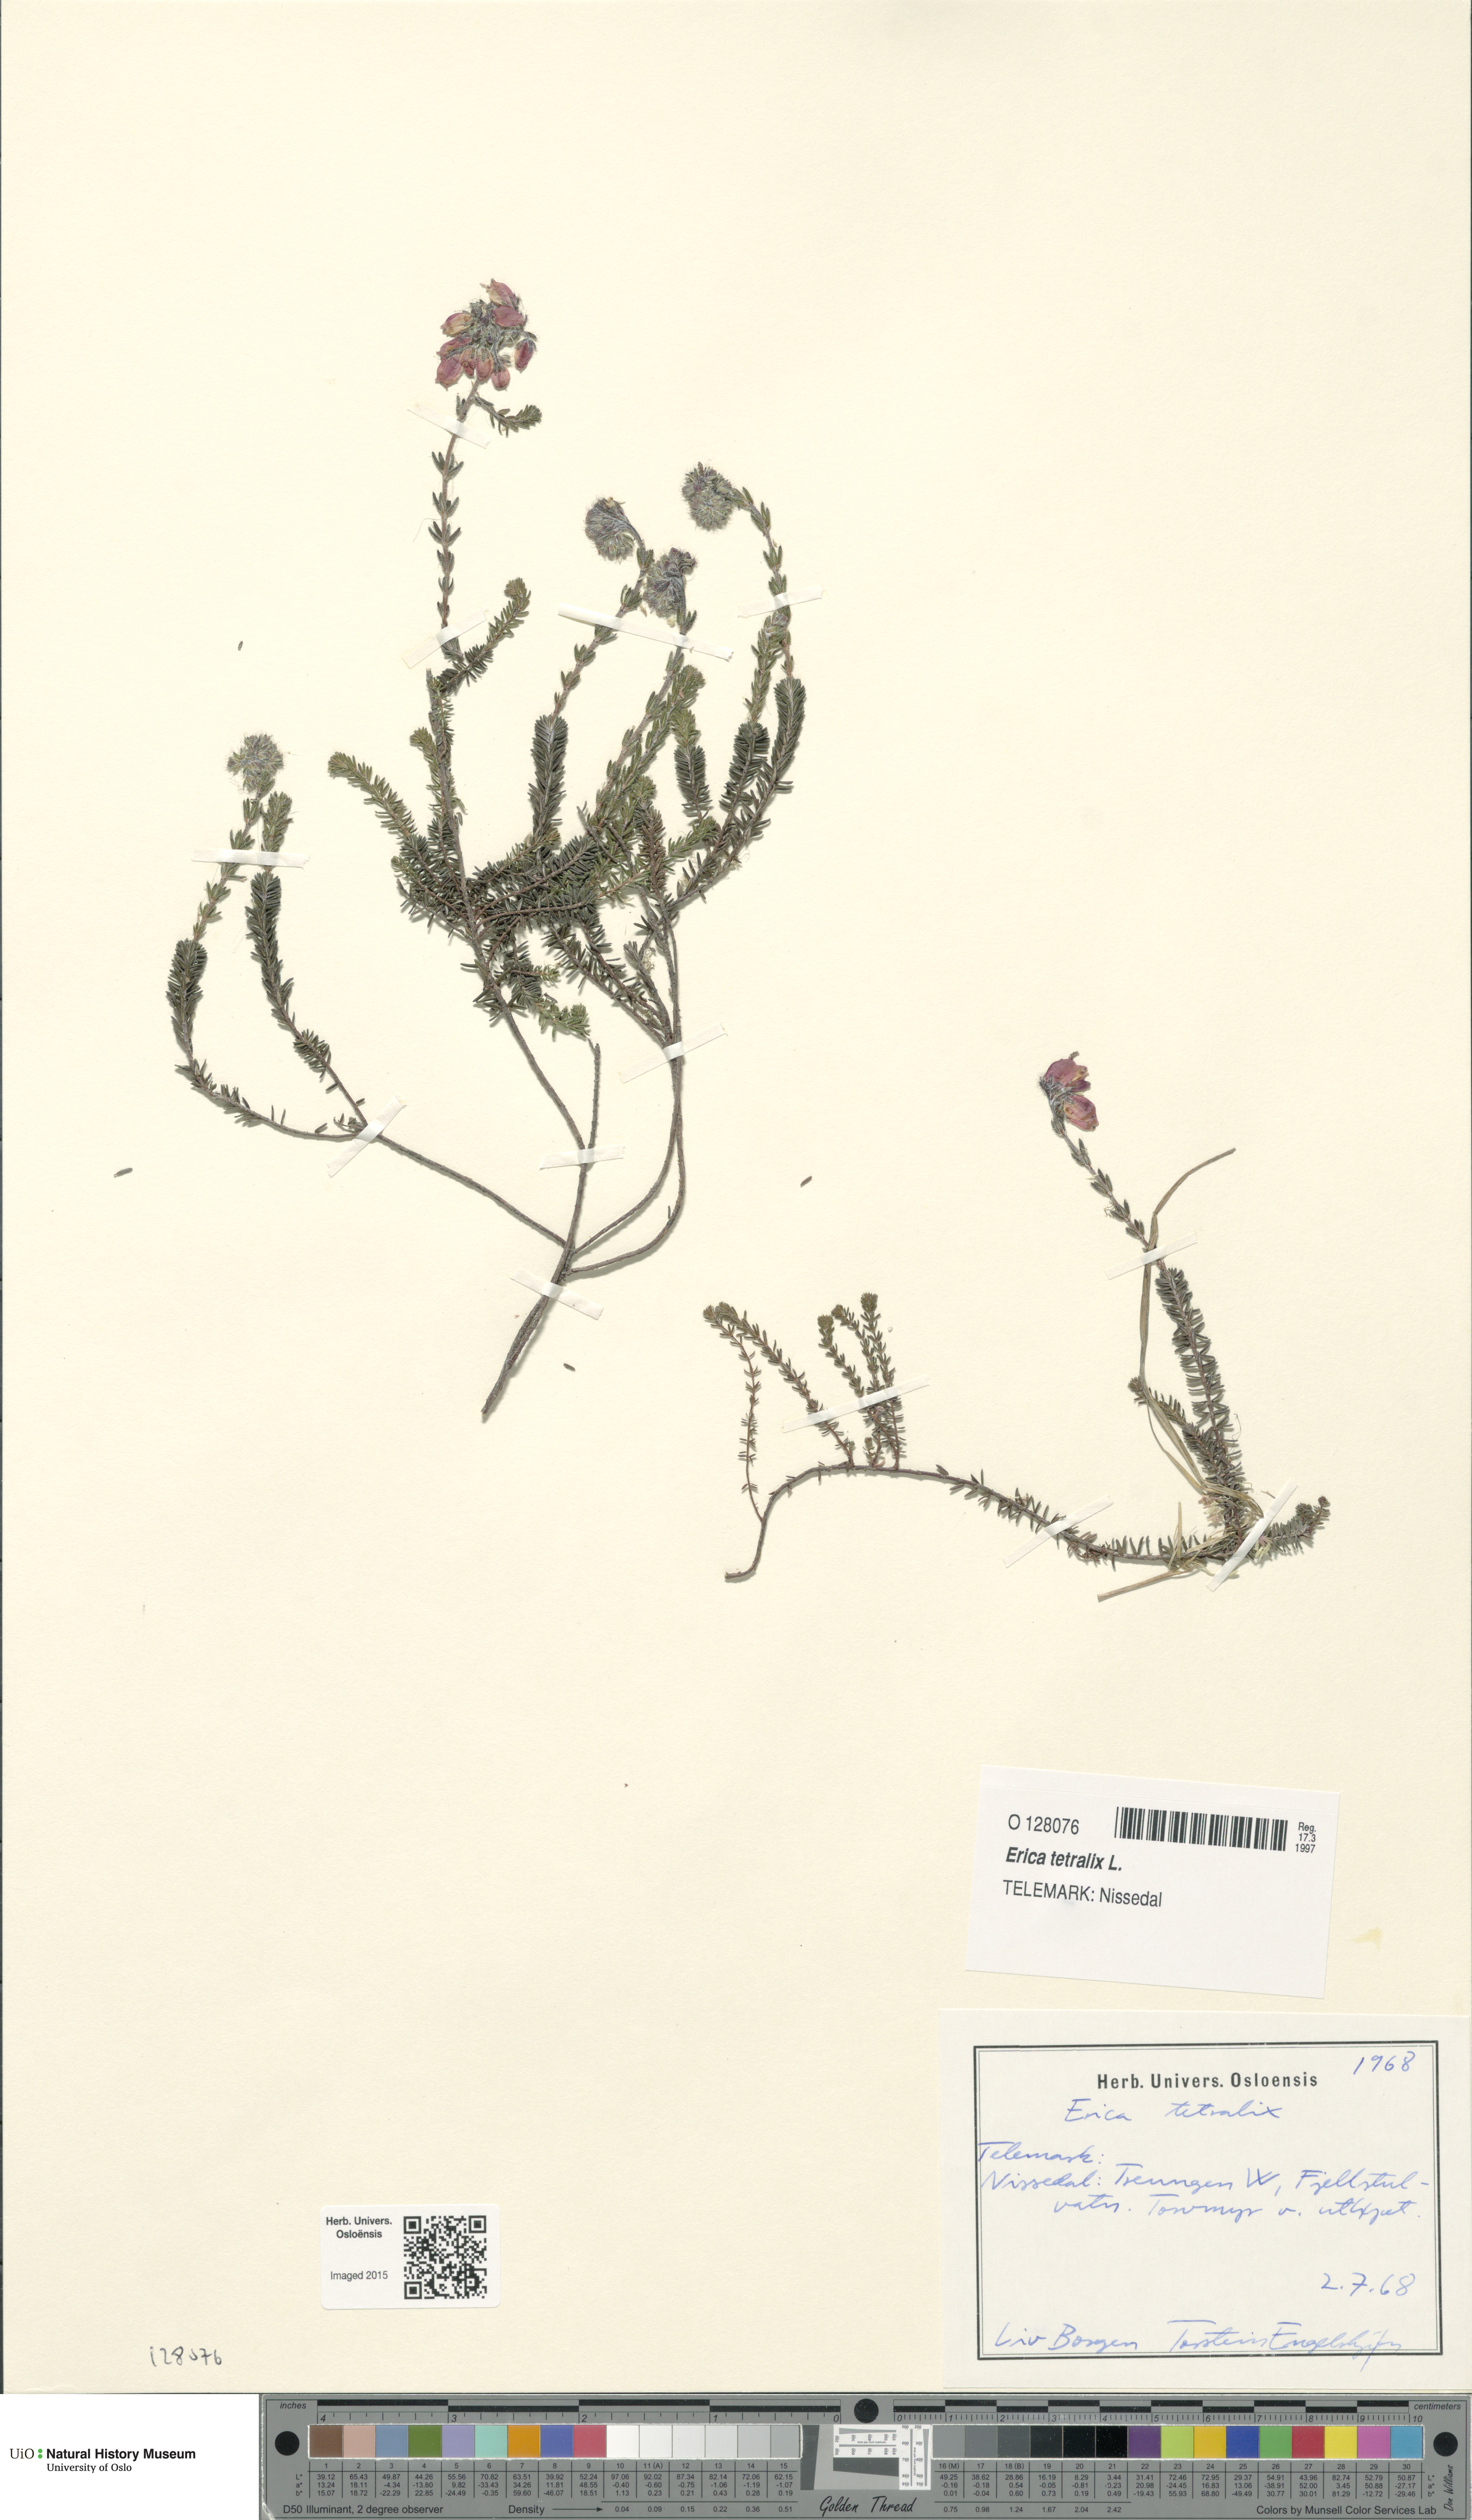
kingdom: Plantae
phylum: Tracheophyta
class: Magnoliopsida
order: Ericales
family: Ericaceae
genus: Erica
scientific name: Erica tetralix
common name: Cross-leaved heath
